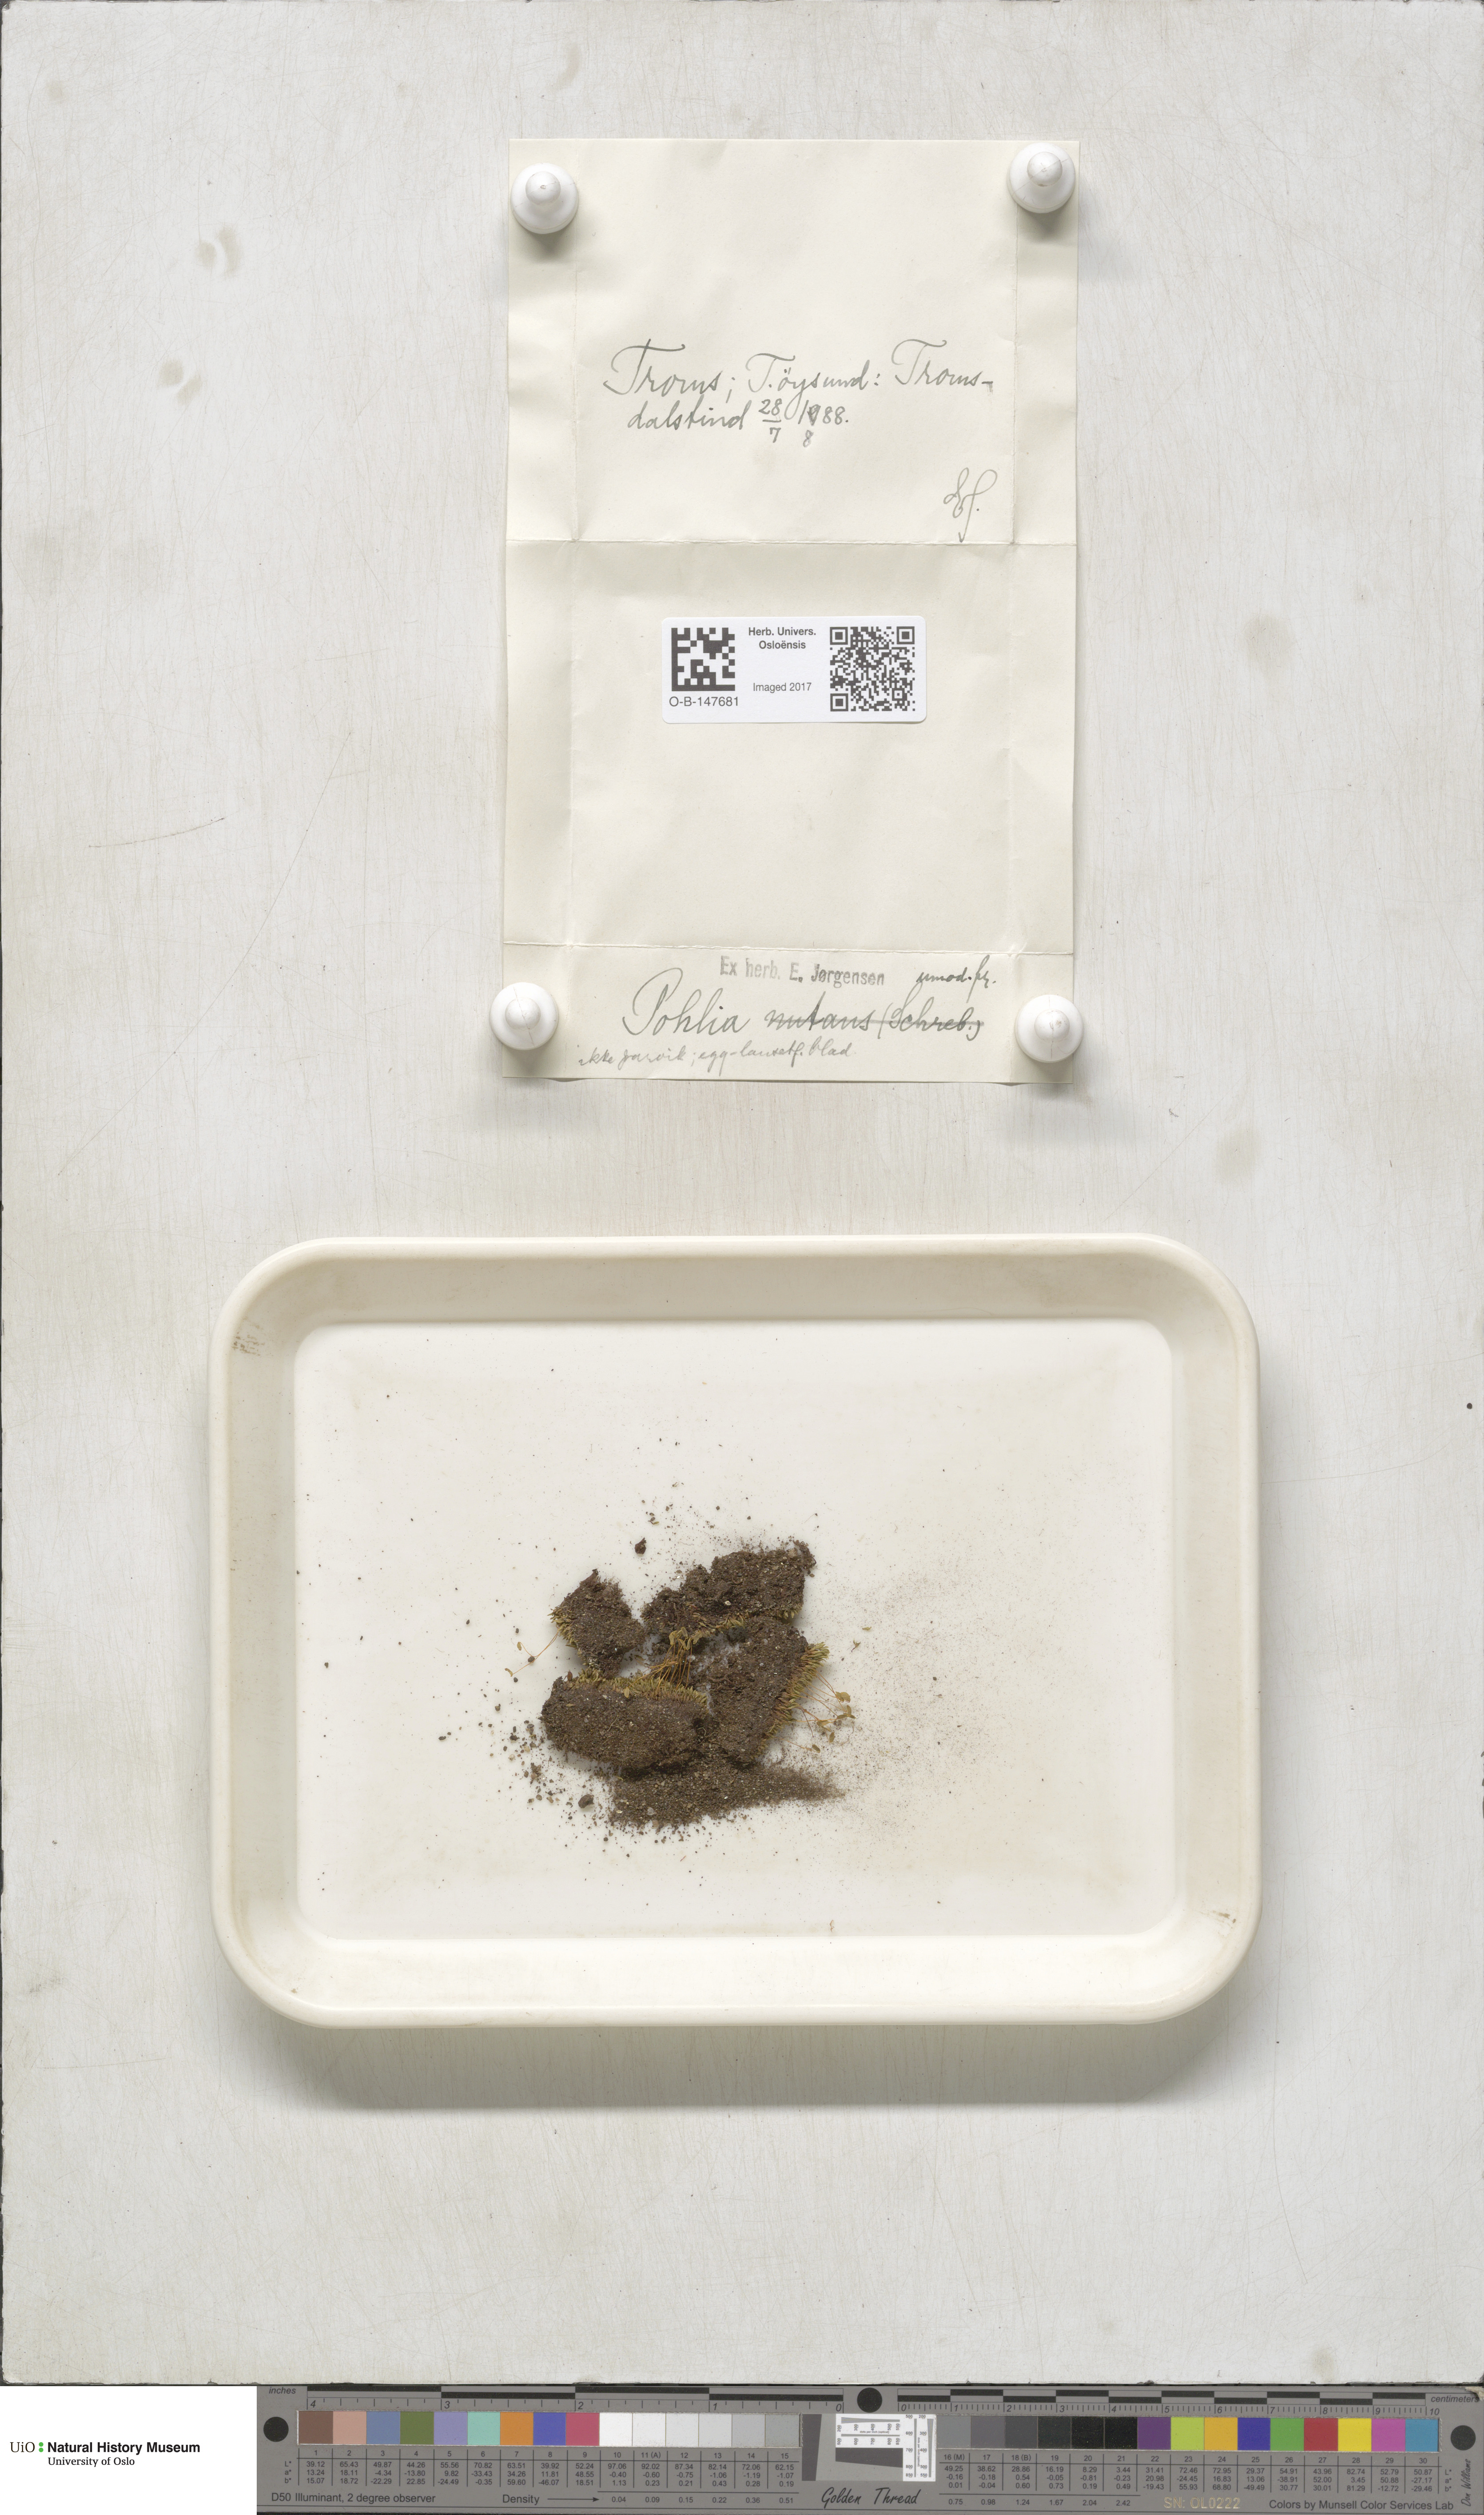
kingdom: Plantae
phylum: Bryophyta
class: Bryopsida
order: Bryales
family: Mniaceae
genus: Pohlia
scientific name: Pohlia
